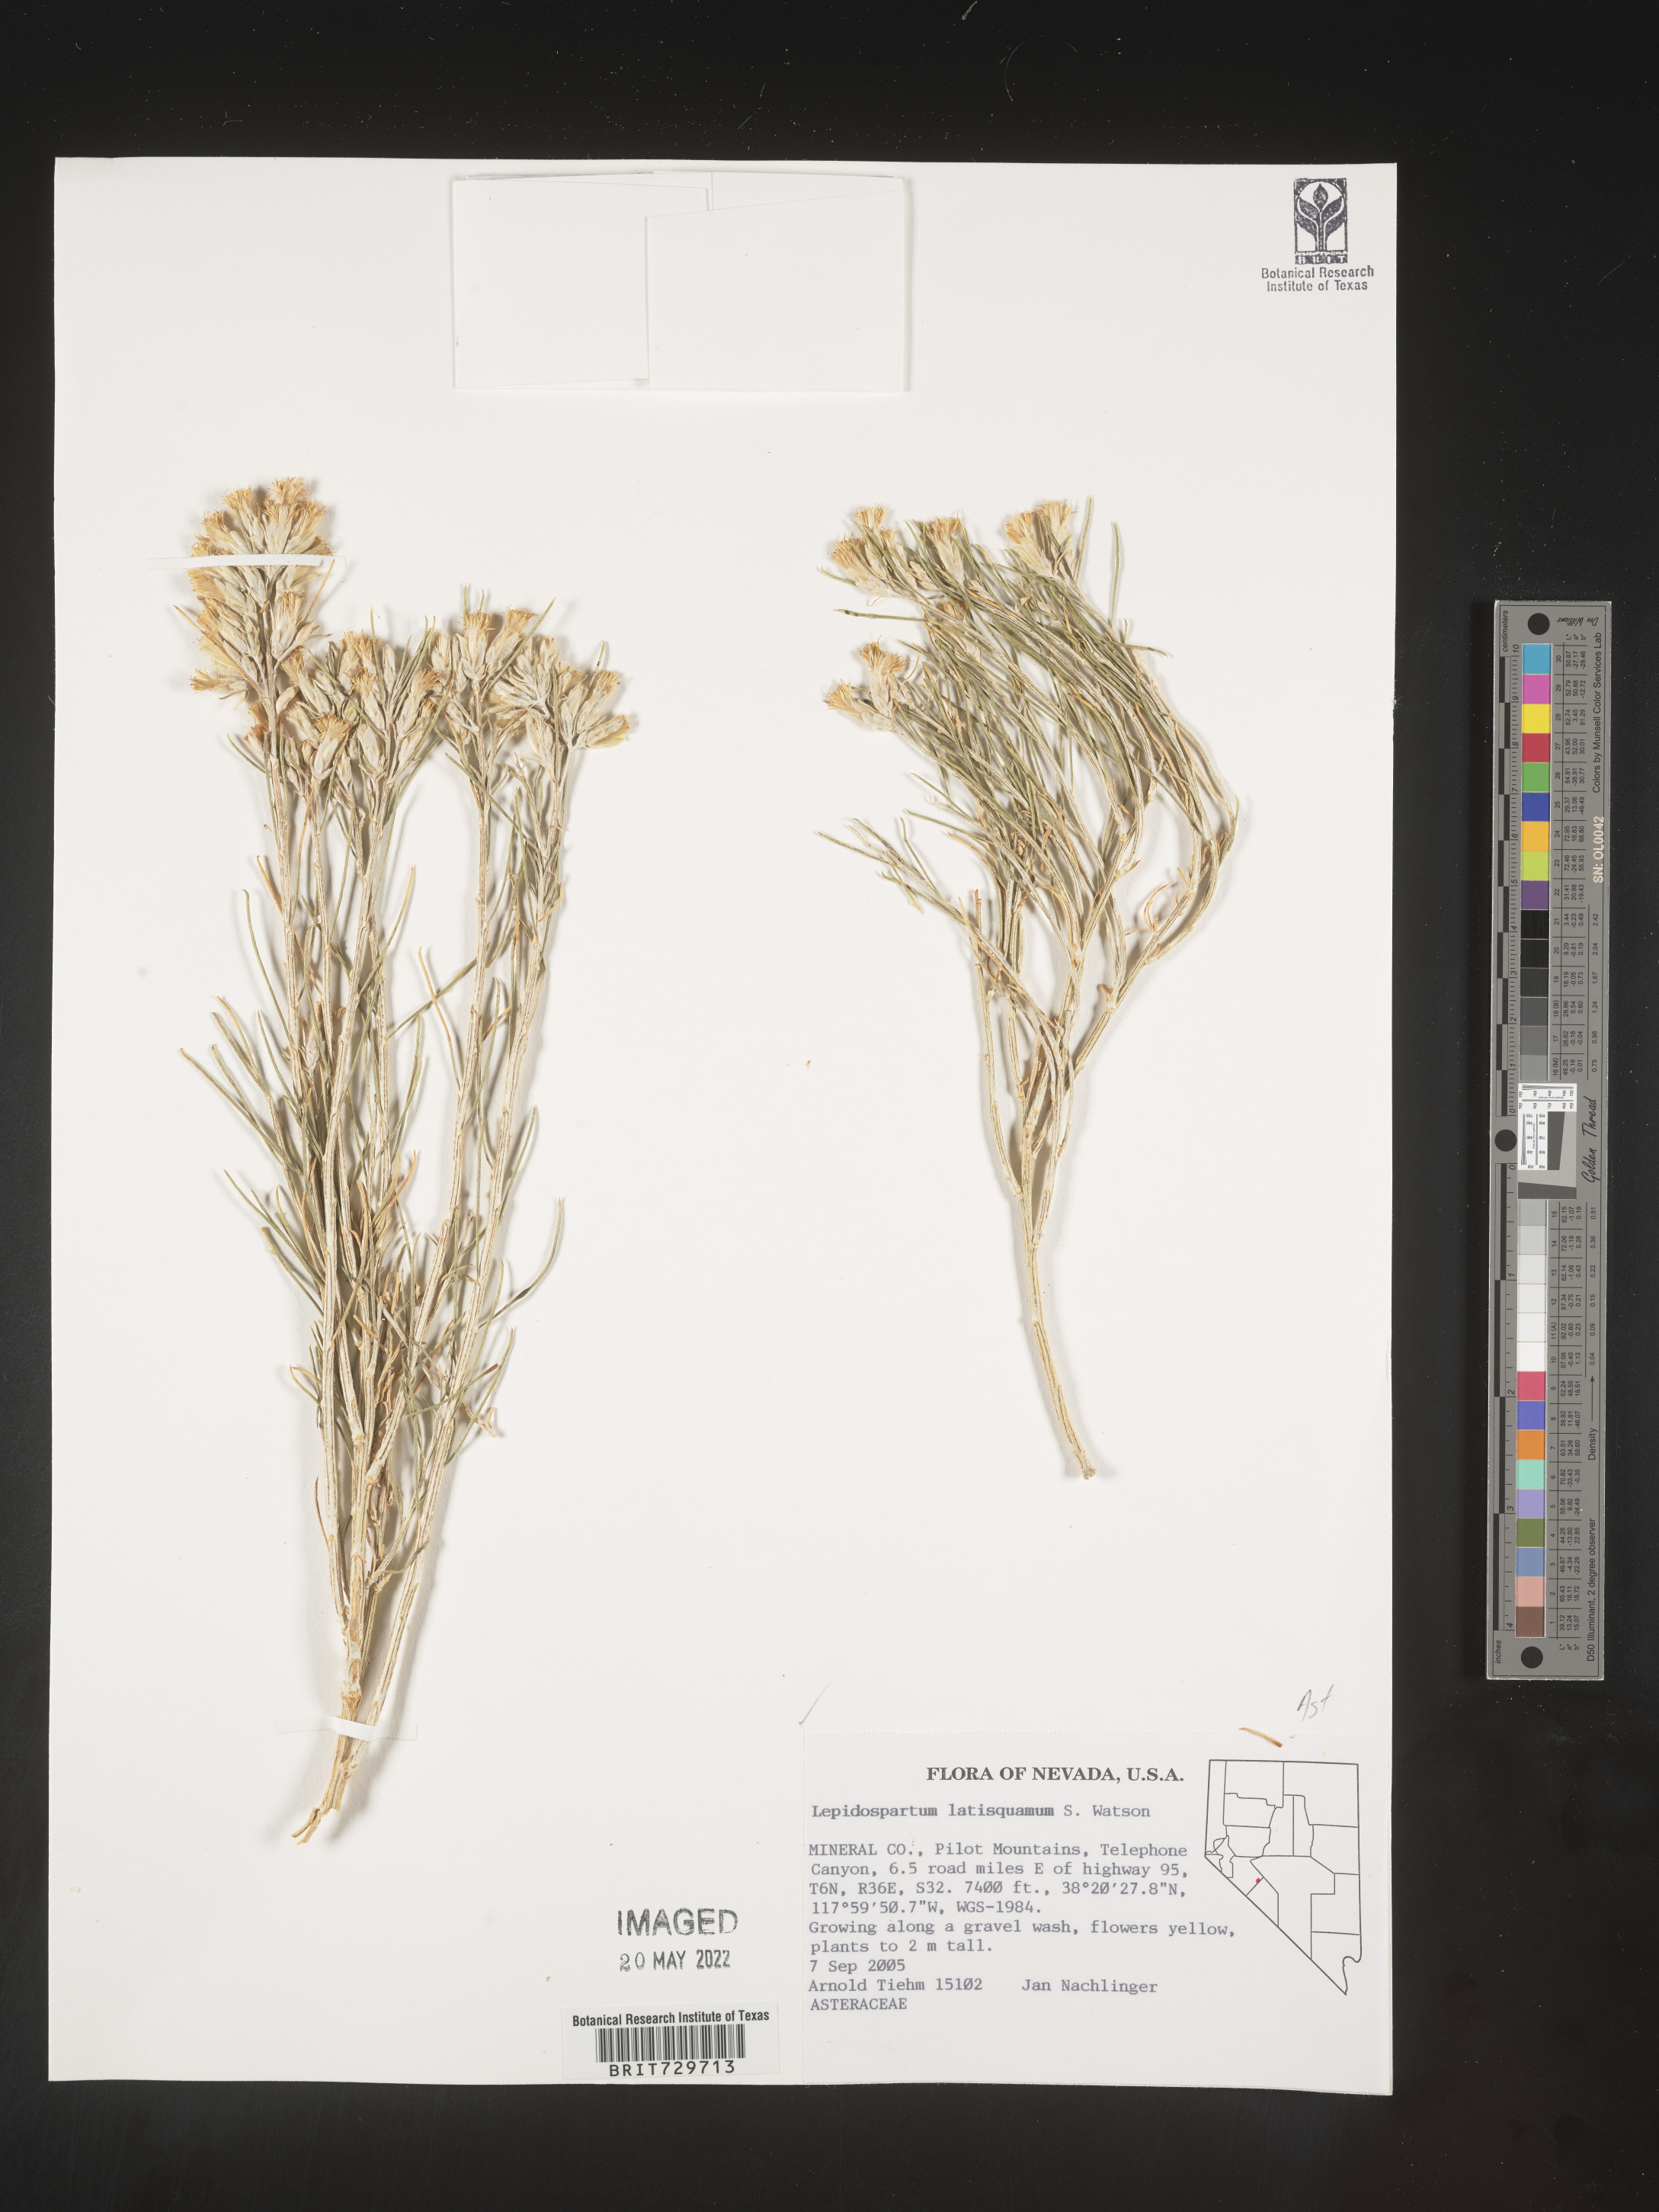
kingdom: Plantae
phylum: Tracheophyta
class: Magnoliopsida
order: Asterales
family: Asteraceae
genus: Lepidospartum
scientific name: Lepidospartum latisquamum
